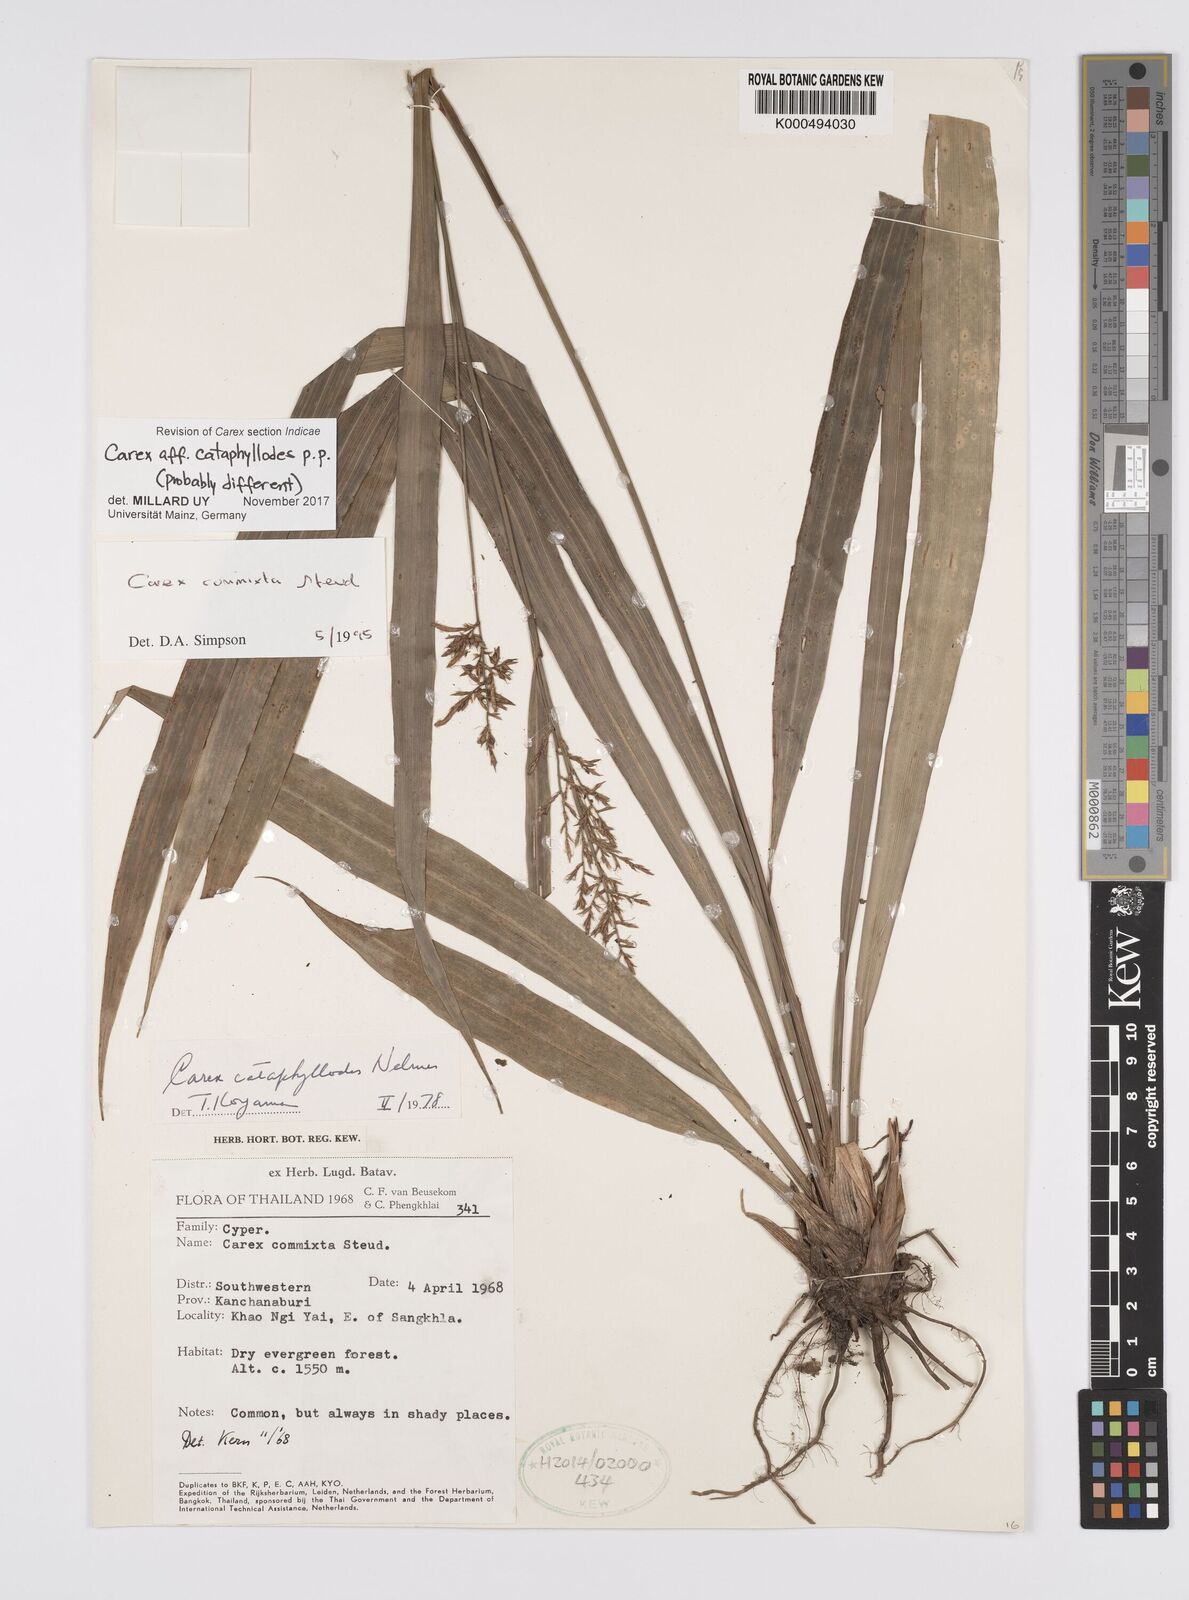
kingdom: Plantae
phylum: Tracheophyta
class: Liliopsida
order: Poales
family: Cyperaceae
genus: Carex
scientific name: Carex commixta
